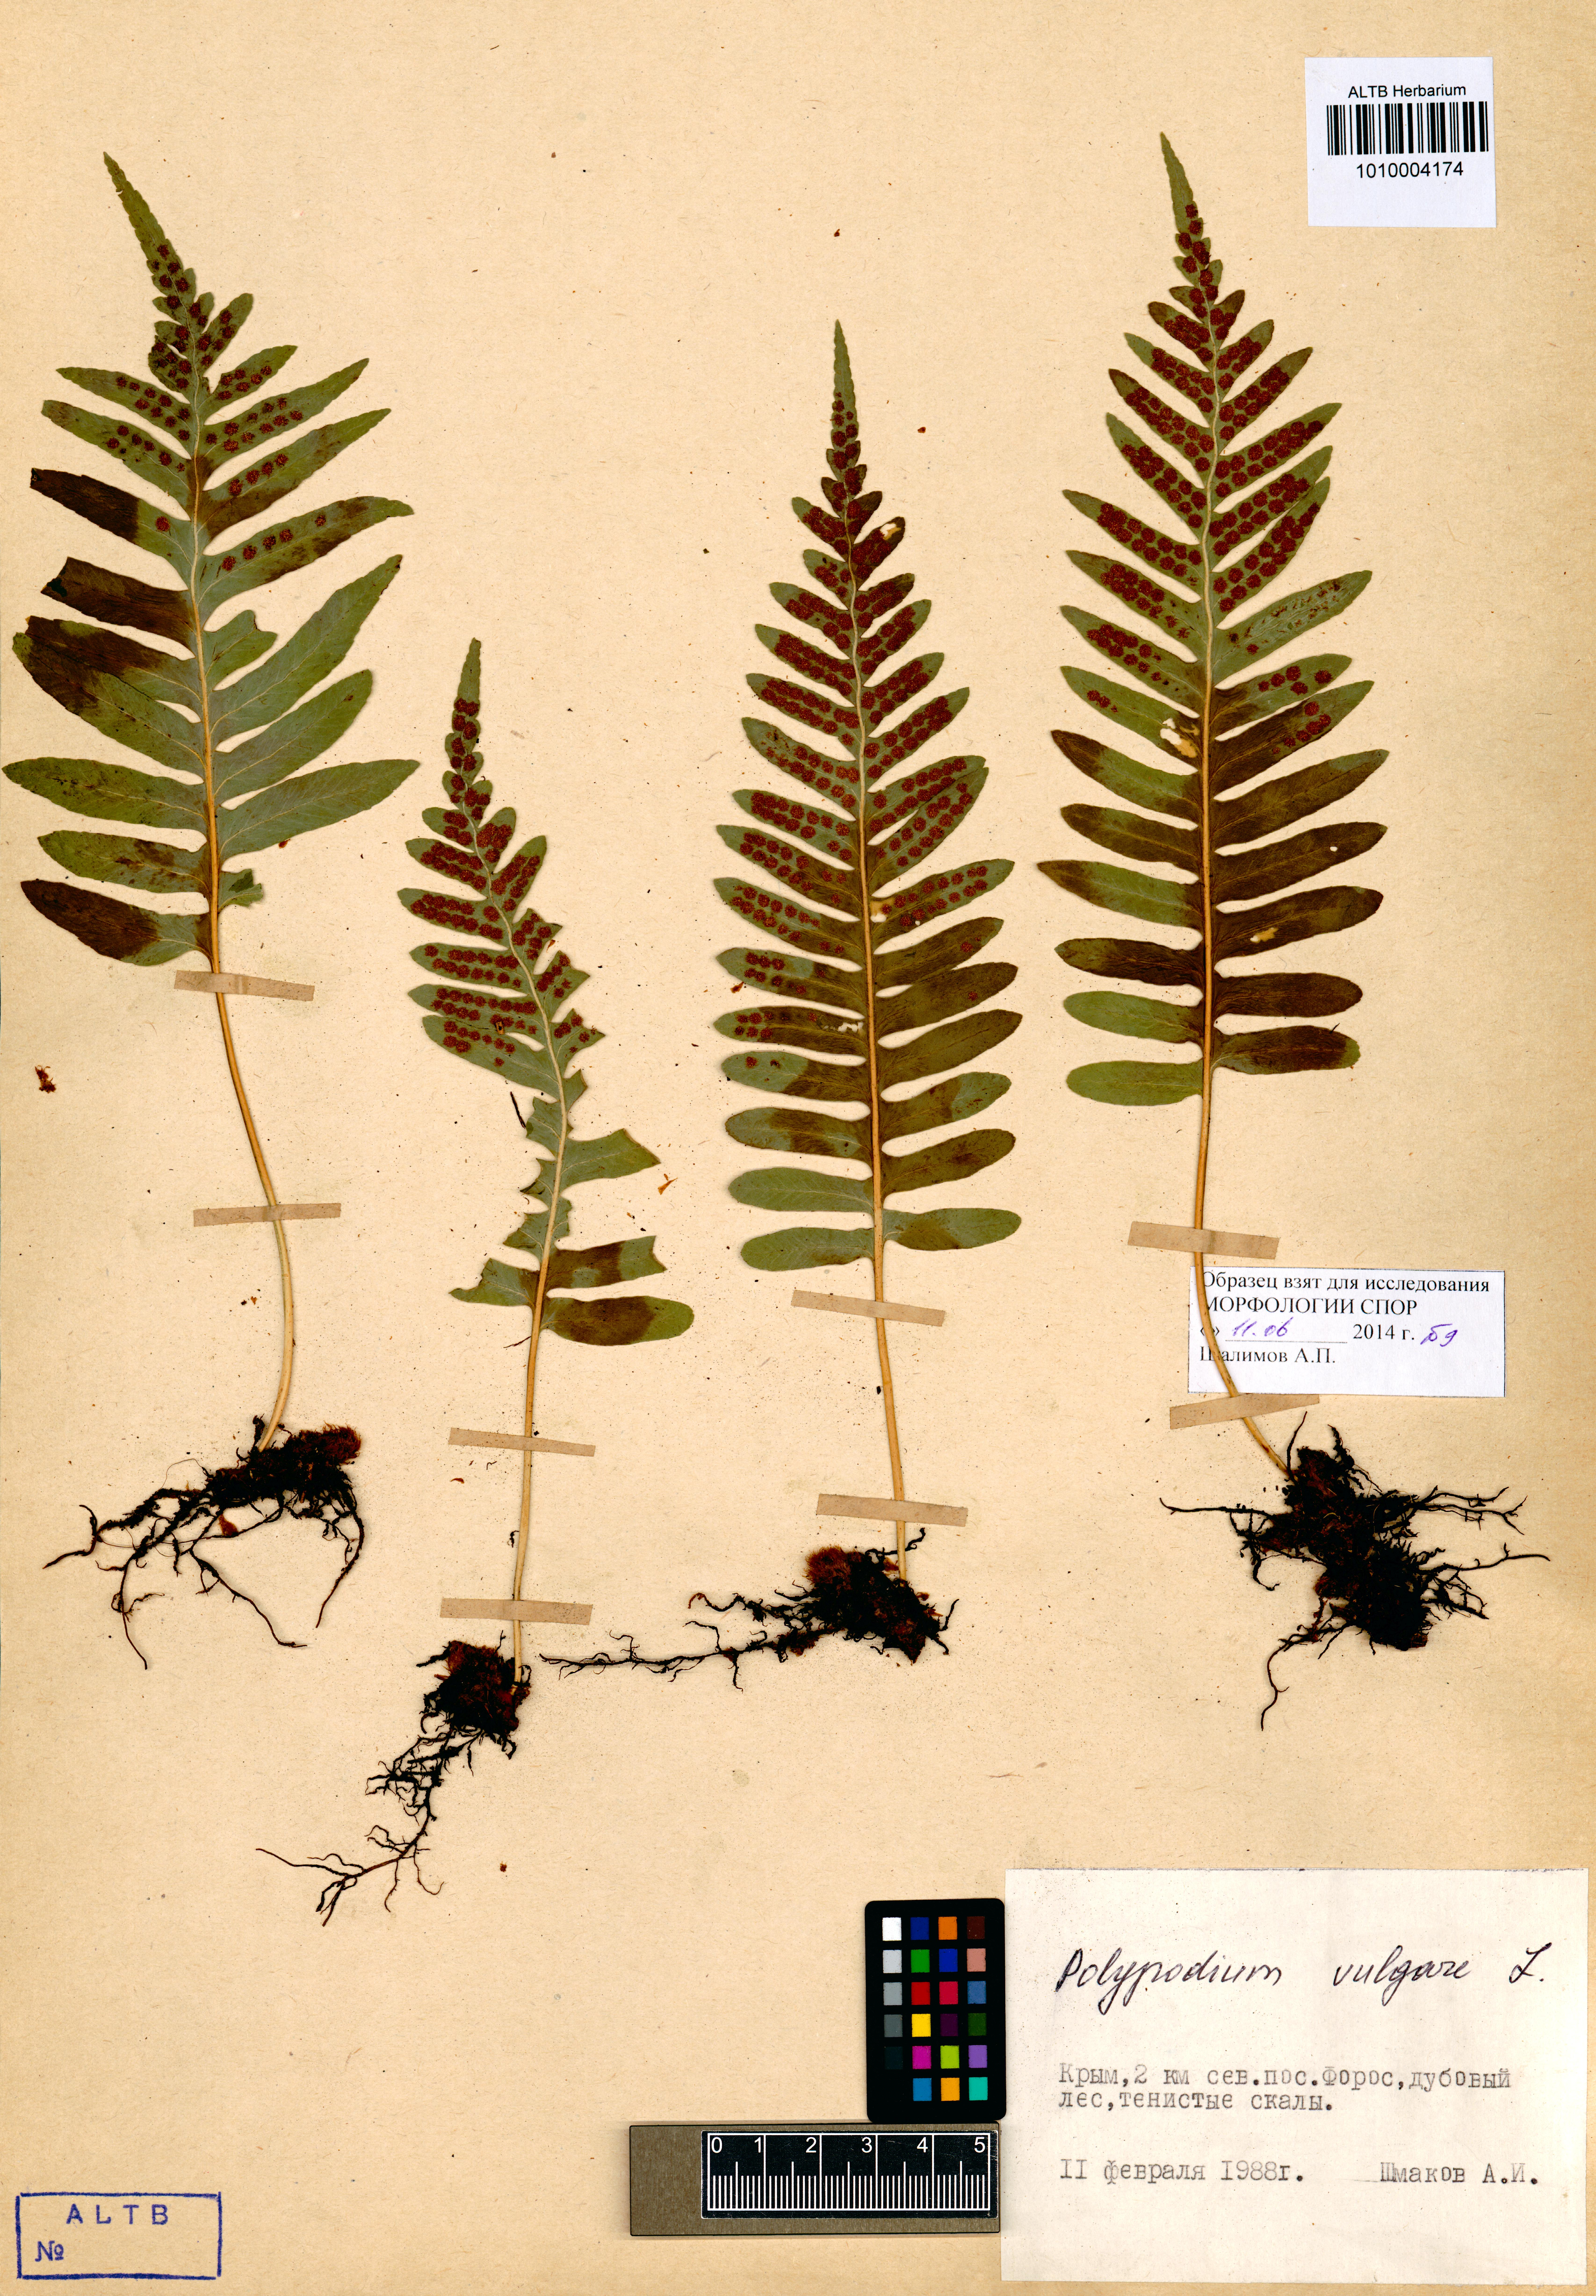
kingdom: Plantae
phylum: Tracheophyta
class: Polypodiopsida
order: Polypodiales
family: Polypodiaceae
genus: Polypodium
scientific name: Polypodium vulgare
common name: Common polypody
